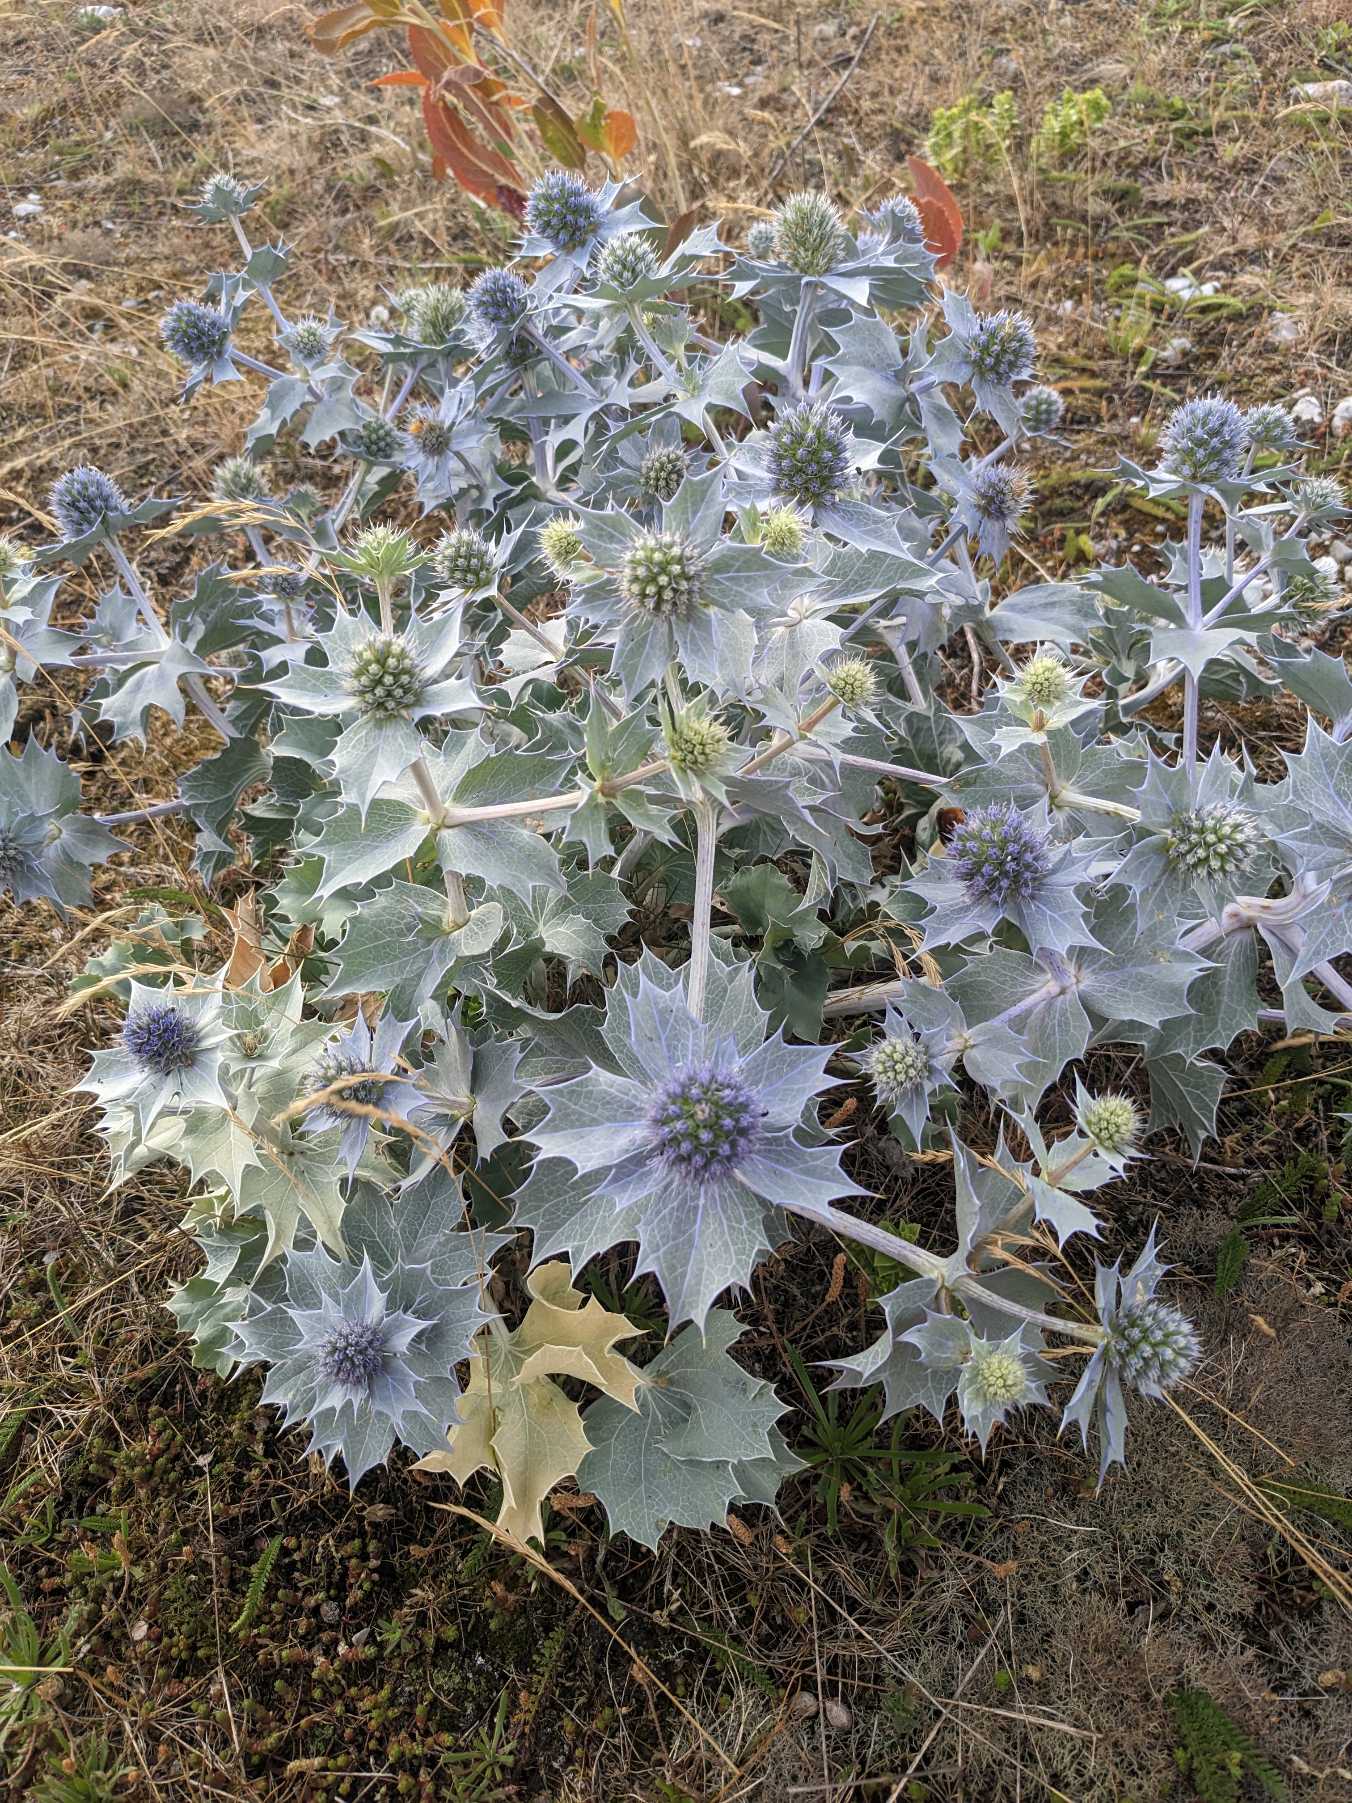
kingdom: Plantae
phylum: Tracheophyta
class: Magnoliopsida
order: Apiales
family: Apiaceae
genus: Eryngium
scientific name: Eryngium maritimum
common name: Strand-mandstro
